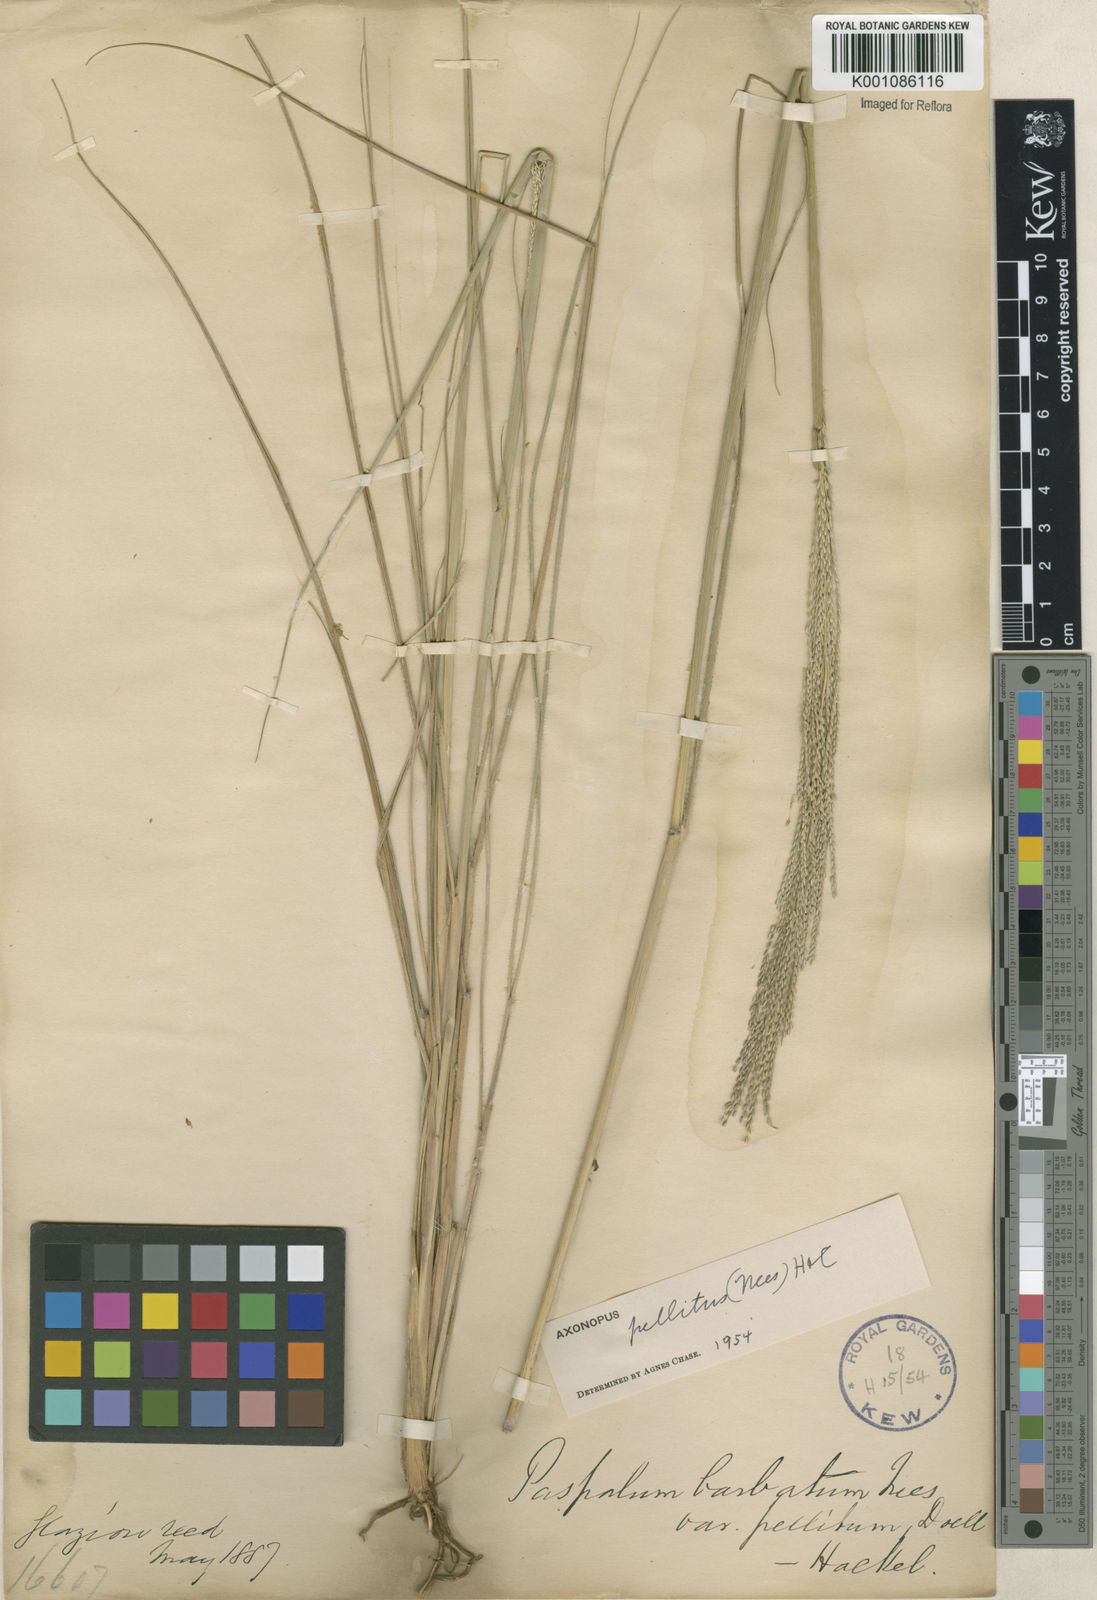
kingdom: Plantae
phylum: Tracheophyta
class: Liliopsida
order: Poales
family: Poaceae
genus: Axonopus
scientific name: Axonopus siccus
